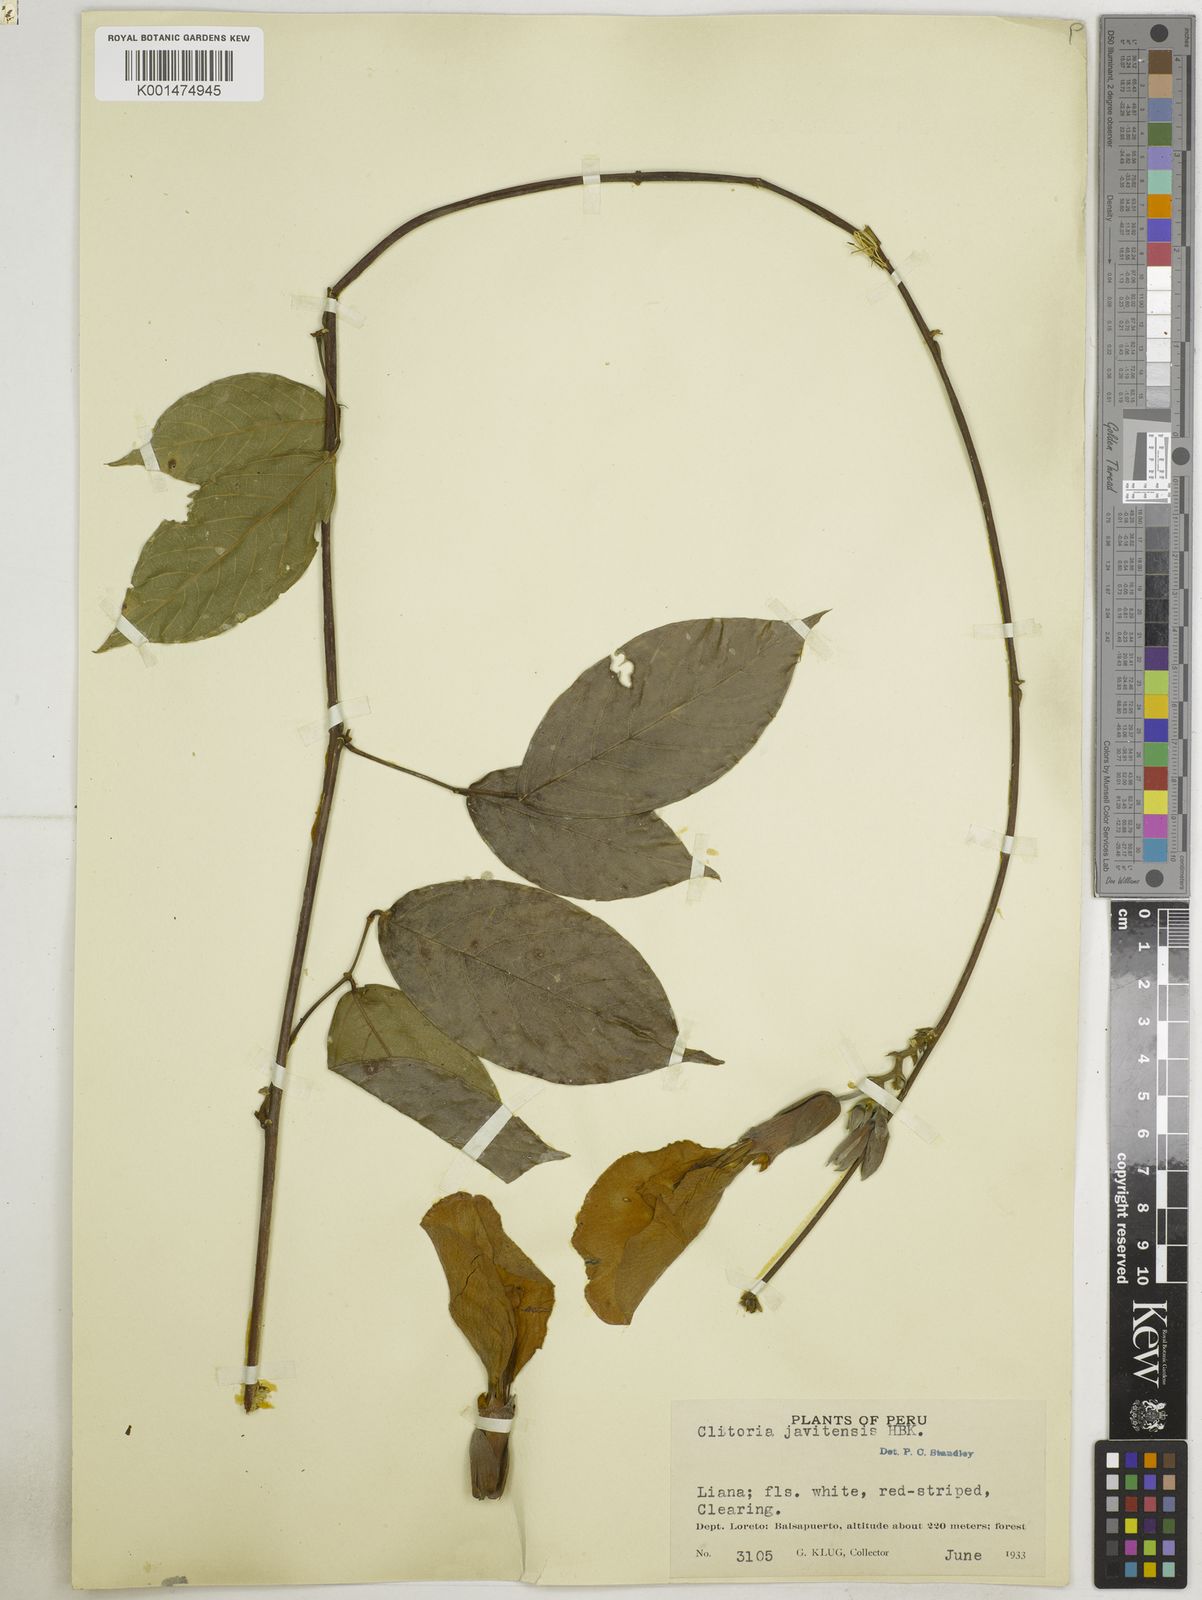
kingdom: Plantae
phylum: Tracheophyta
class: Magnoliopsida
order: Fabales
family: Fabaceae
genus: Clitoria
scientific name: Clitoria javitensis
